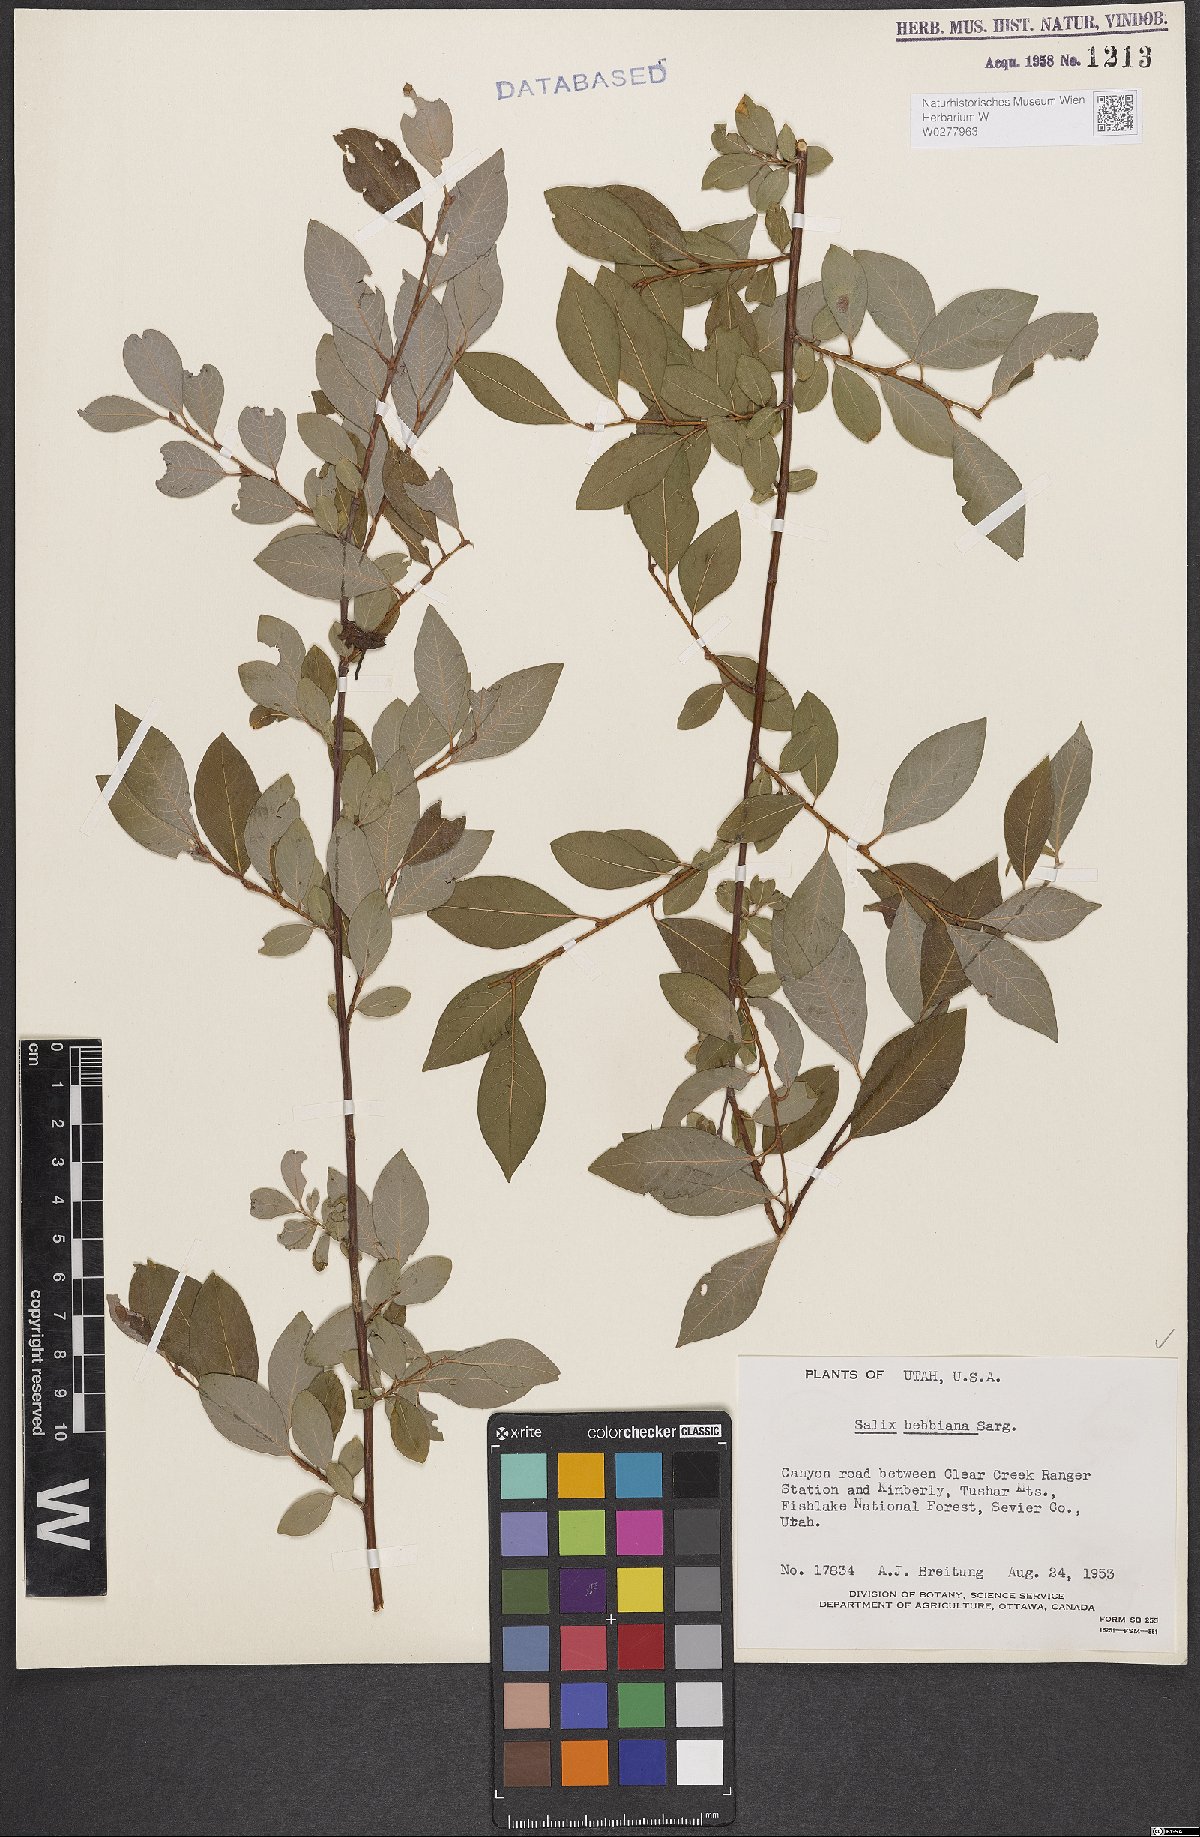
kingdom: Plantae
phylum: Tracheophyta
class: Magnoliopsida
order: Malpighiales
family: Salicaceae
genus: Salix
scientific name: Salix bebbiana
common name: Bebb's willow
